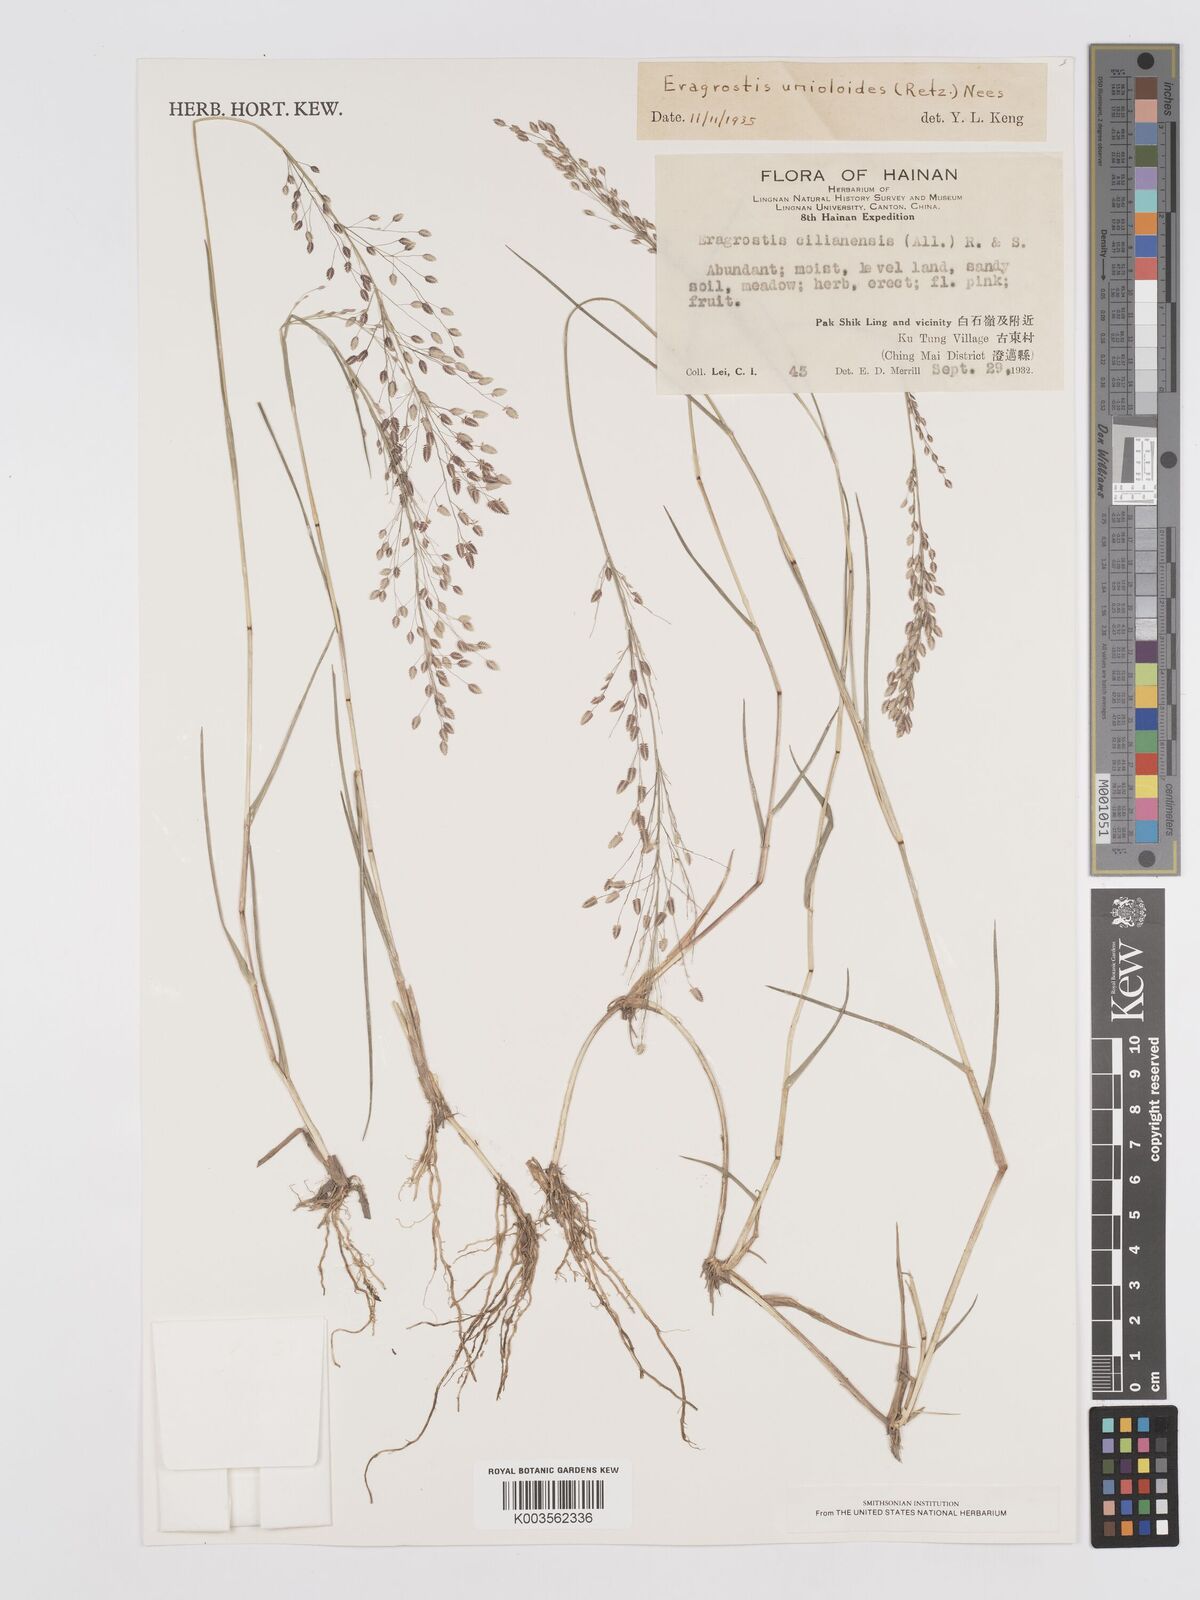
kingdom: Plantae
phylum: Tracheophyta
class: Liliopsida
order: Poales
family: Poaceae
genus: Eragrostis
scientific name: Eragrostis unioloides
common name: Chinese lovegrass
